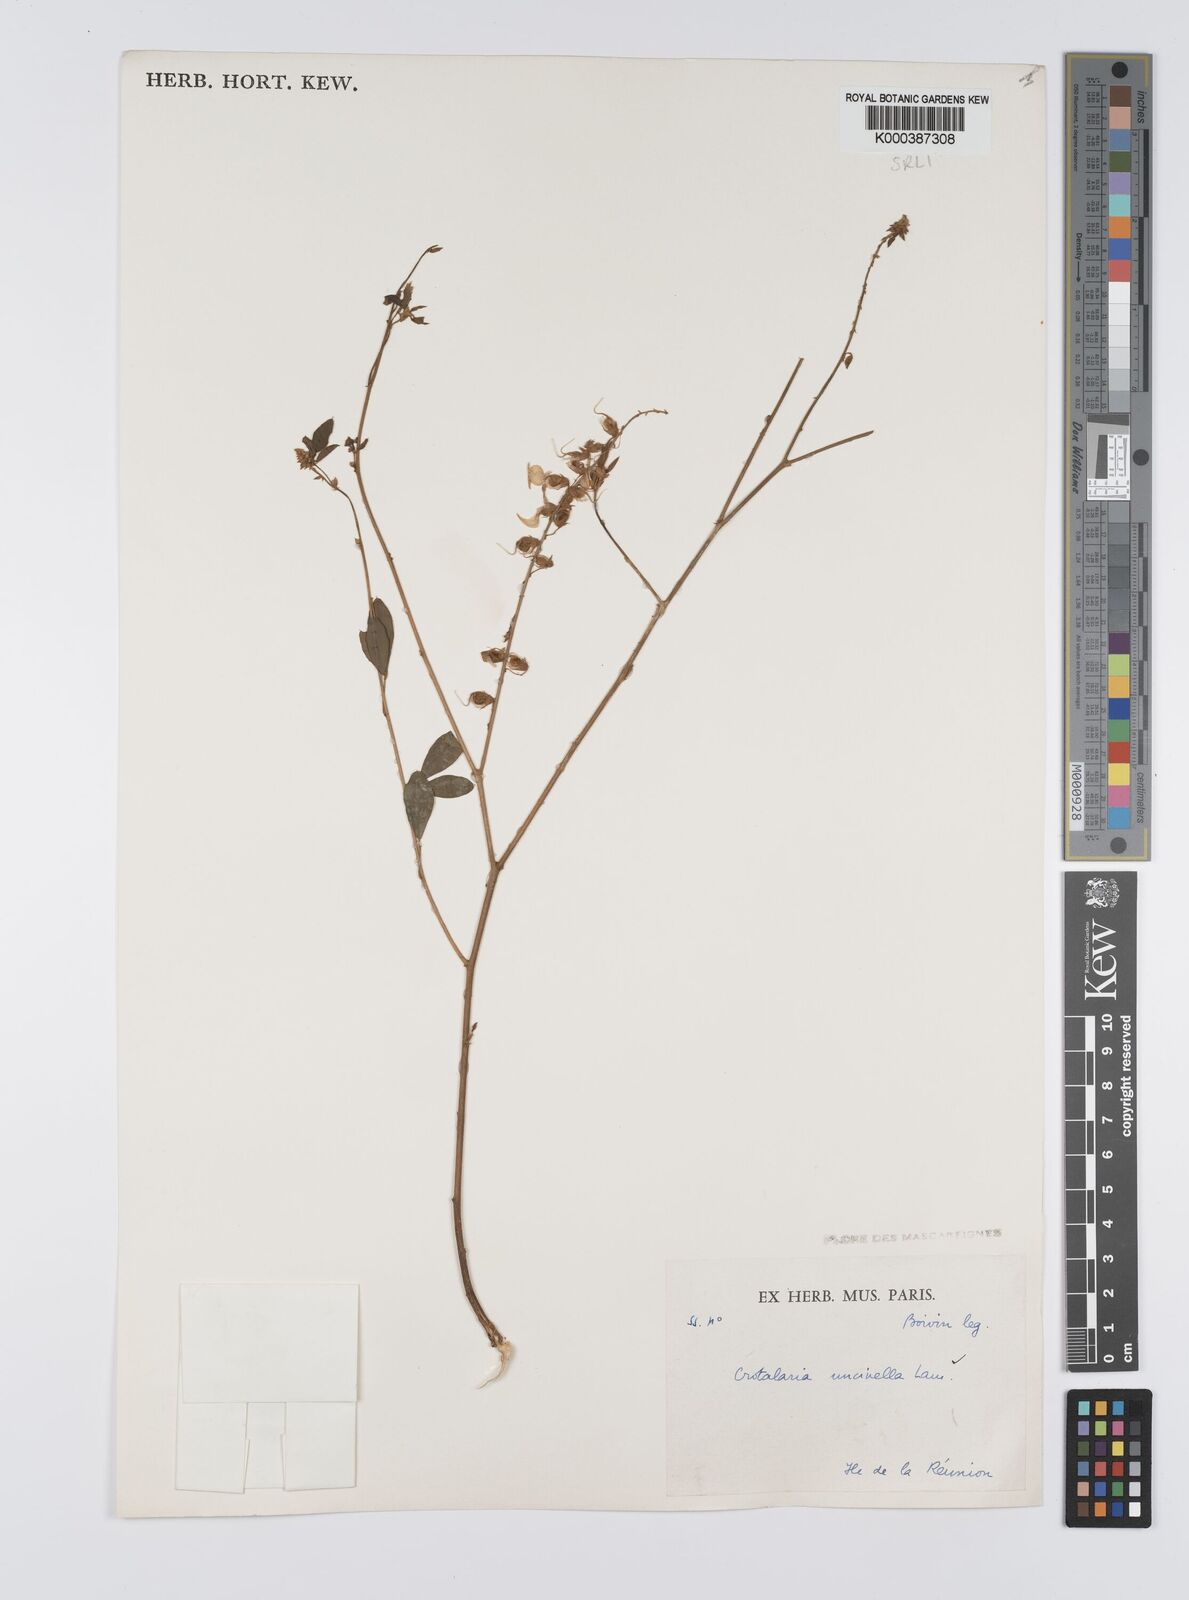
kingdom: Plantae
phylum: Tracheophyta
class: Magnoliopsida
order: Fabales
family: Fabaceae
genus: Crotalaria
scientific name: Crotalaria uncinella
